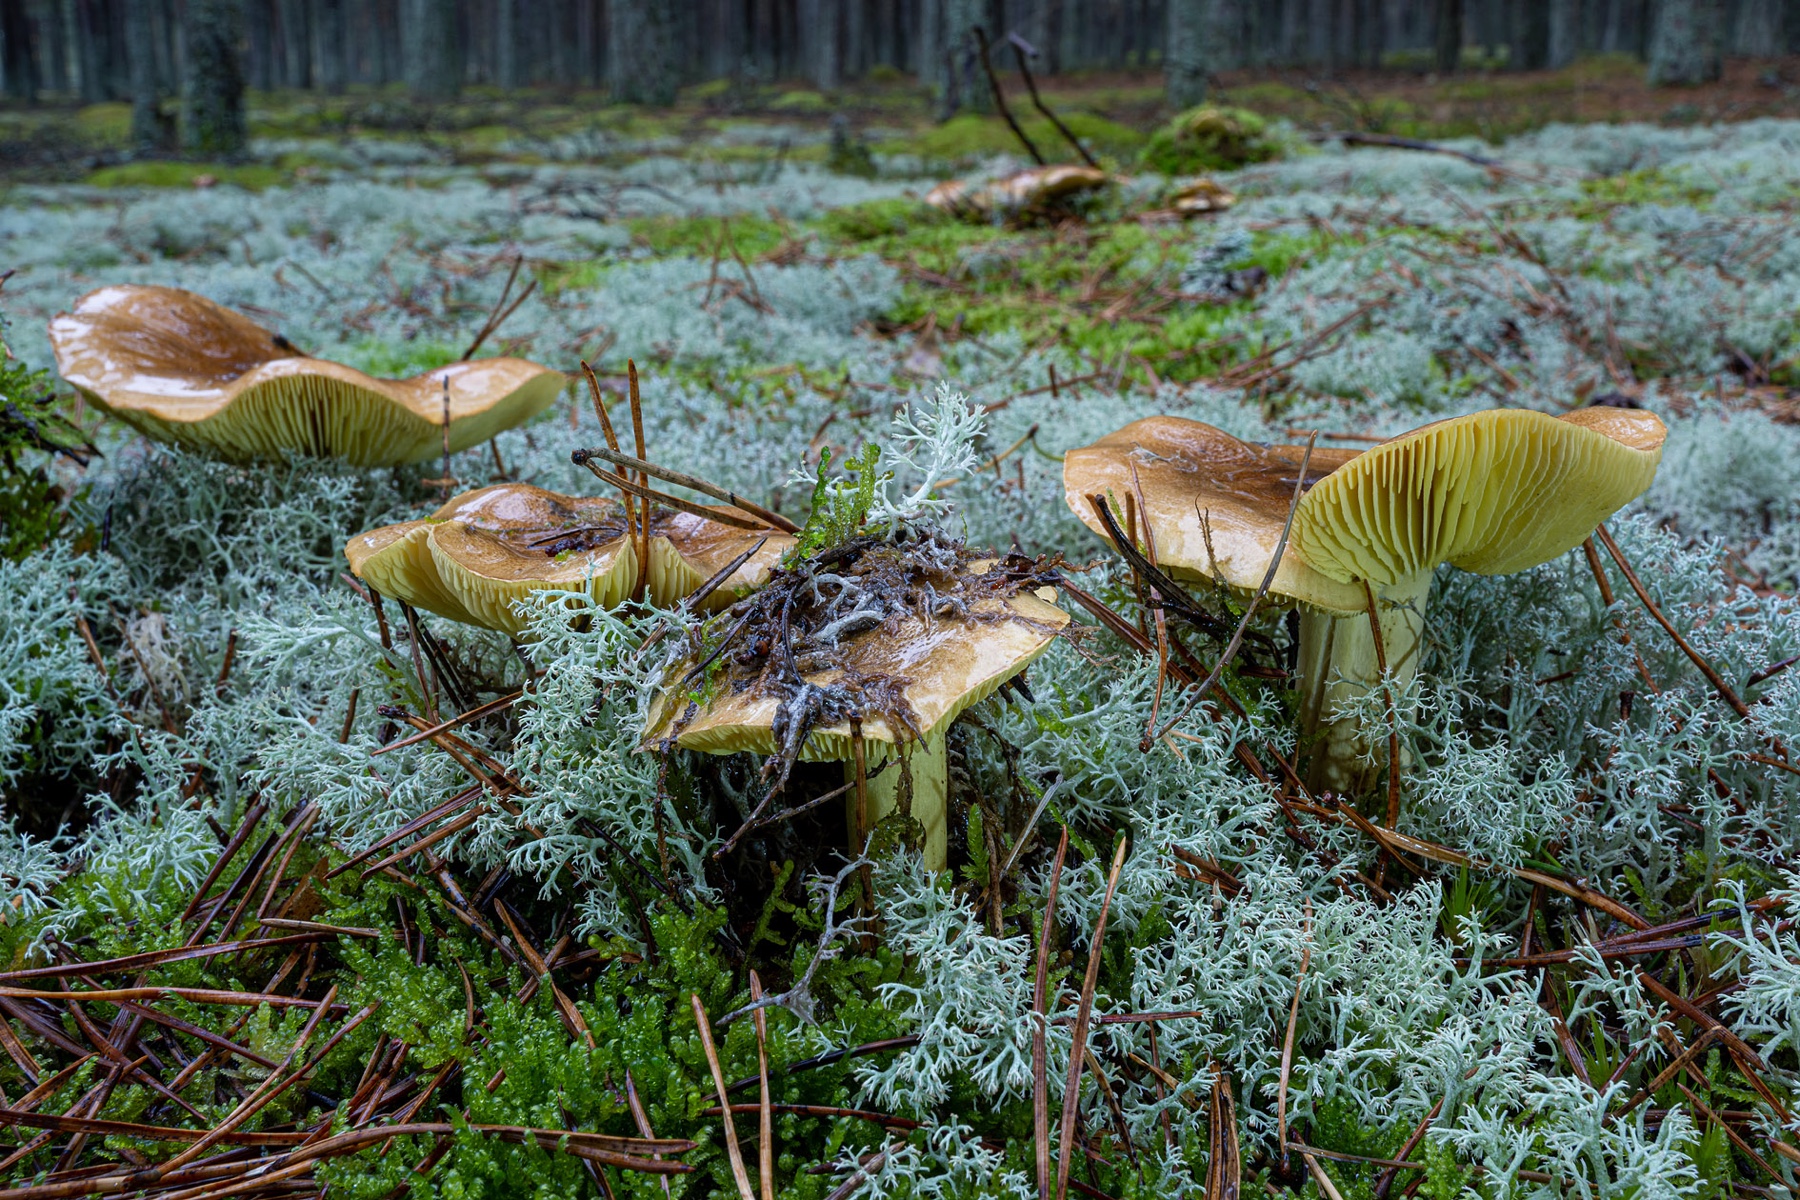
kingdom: Fungi
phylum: Basidiomycota
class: Agaricomycetes
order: Agaricales
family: Tricholomataceae
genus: Tricholoma
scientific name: Tricholoma equestre
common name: ægte ridderhat
